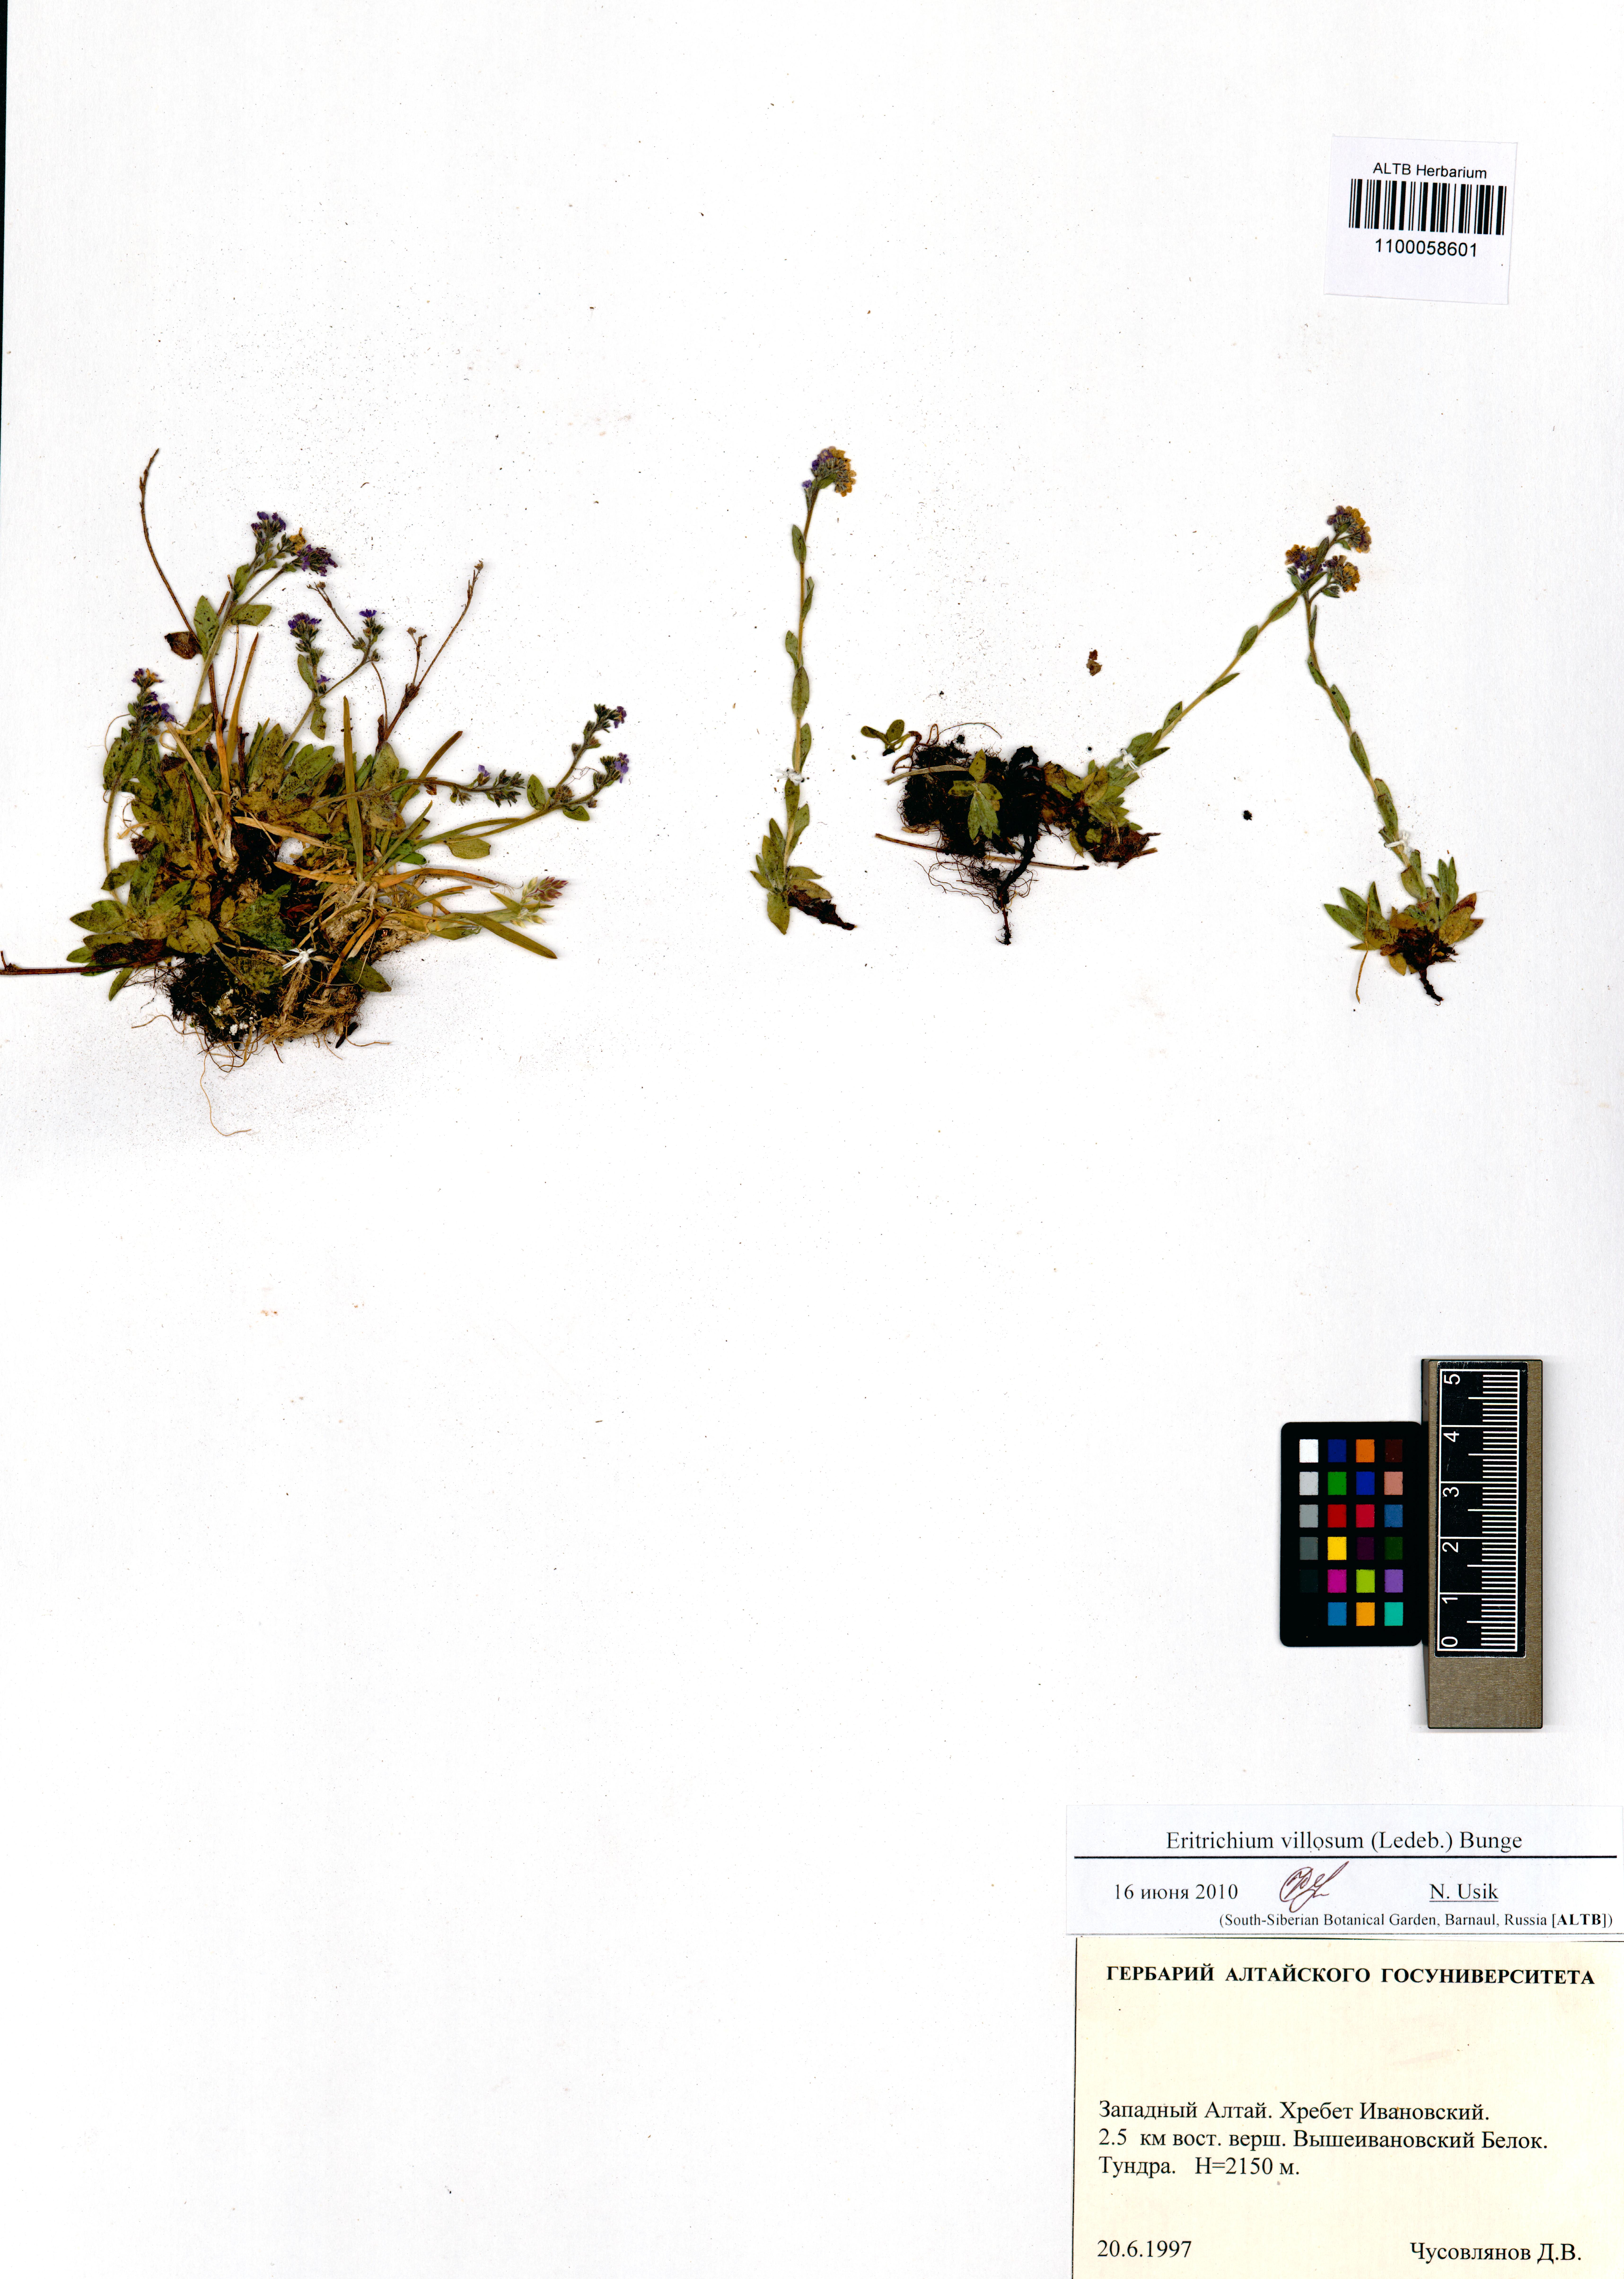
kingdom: Plantae
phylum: Tracheophyta
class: Magnoliopsida
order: Boraginales
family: Boraginaceae
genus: Eritrichium
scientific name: Eritrichium villosum
